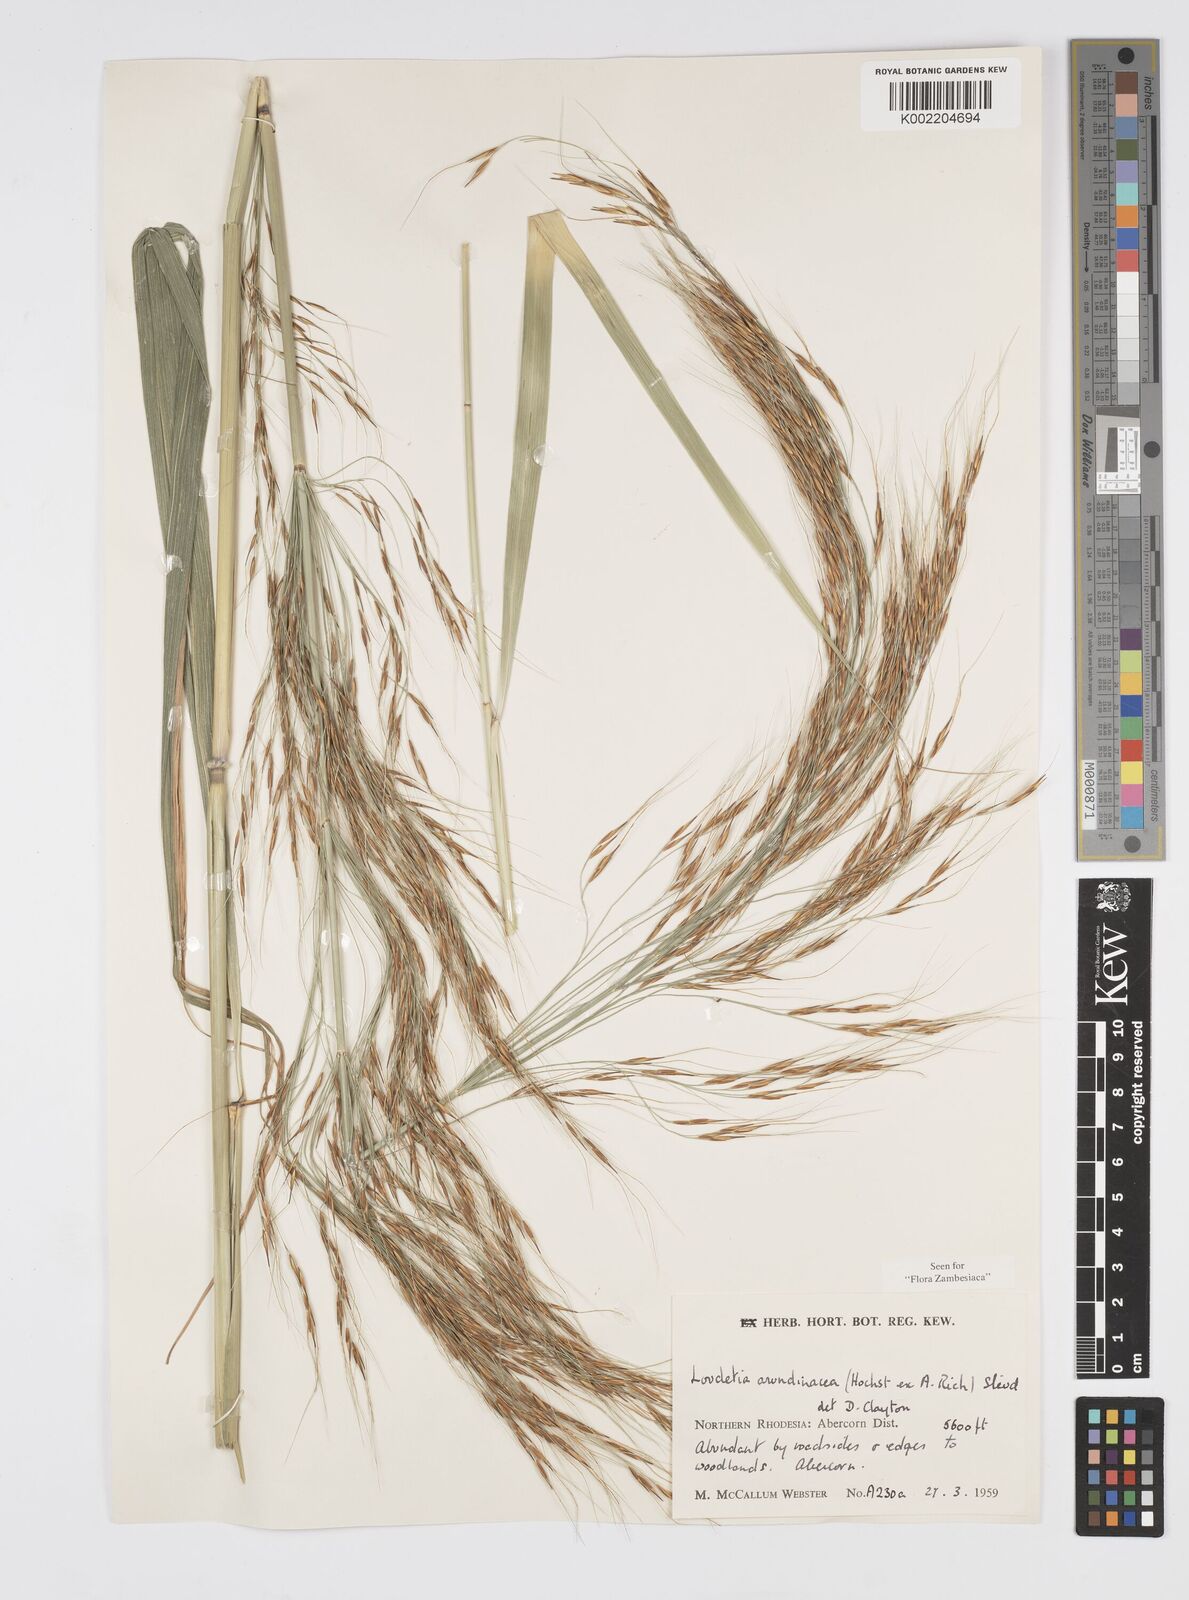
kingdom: Plantae
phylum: Tracheophyta
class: Liliopsida
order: Poales
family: Poaceae
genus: Loudetia
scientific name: Loudetia arundinacea
